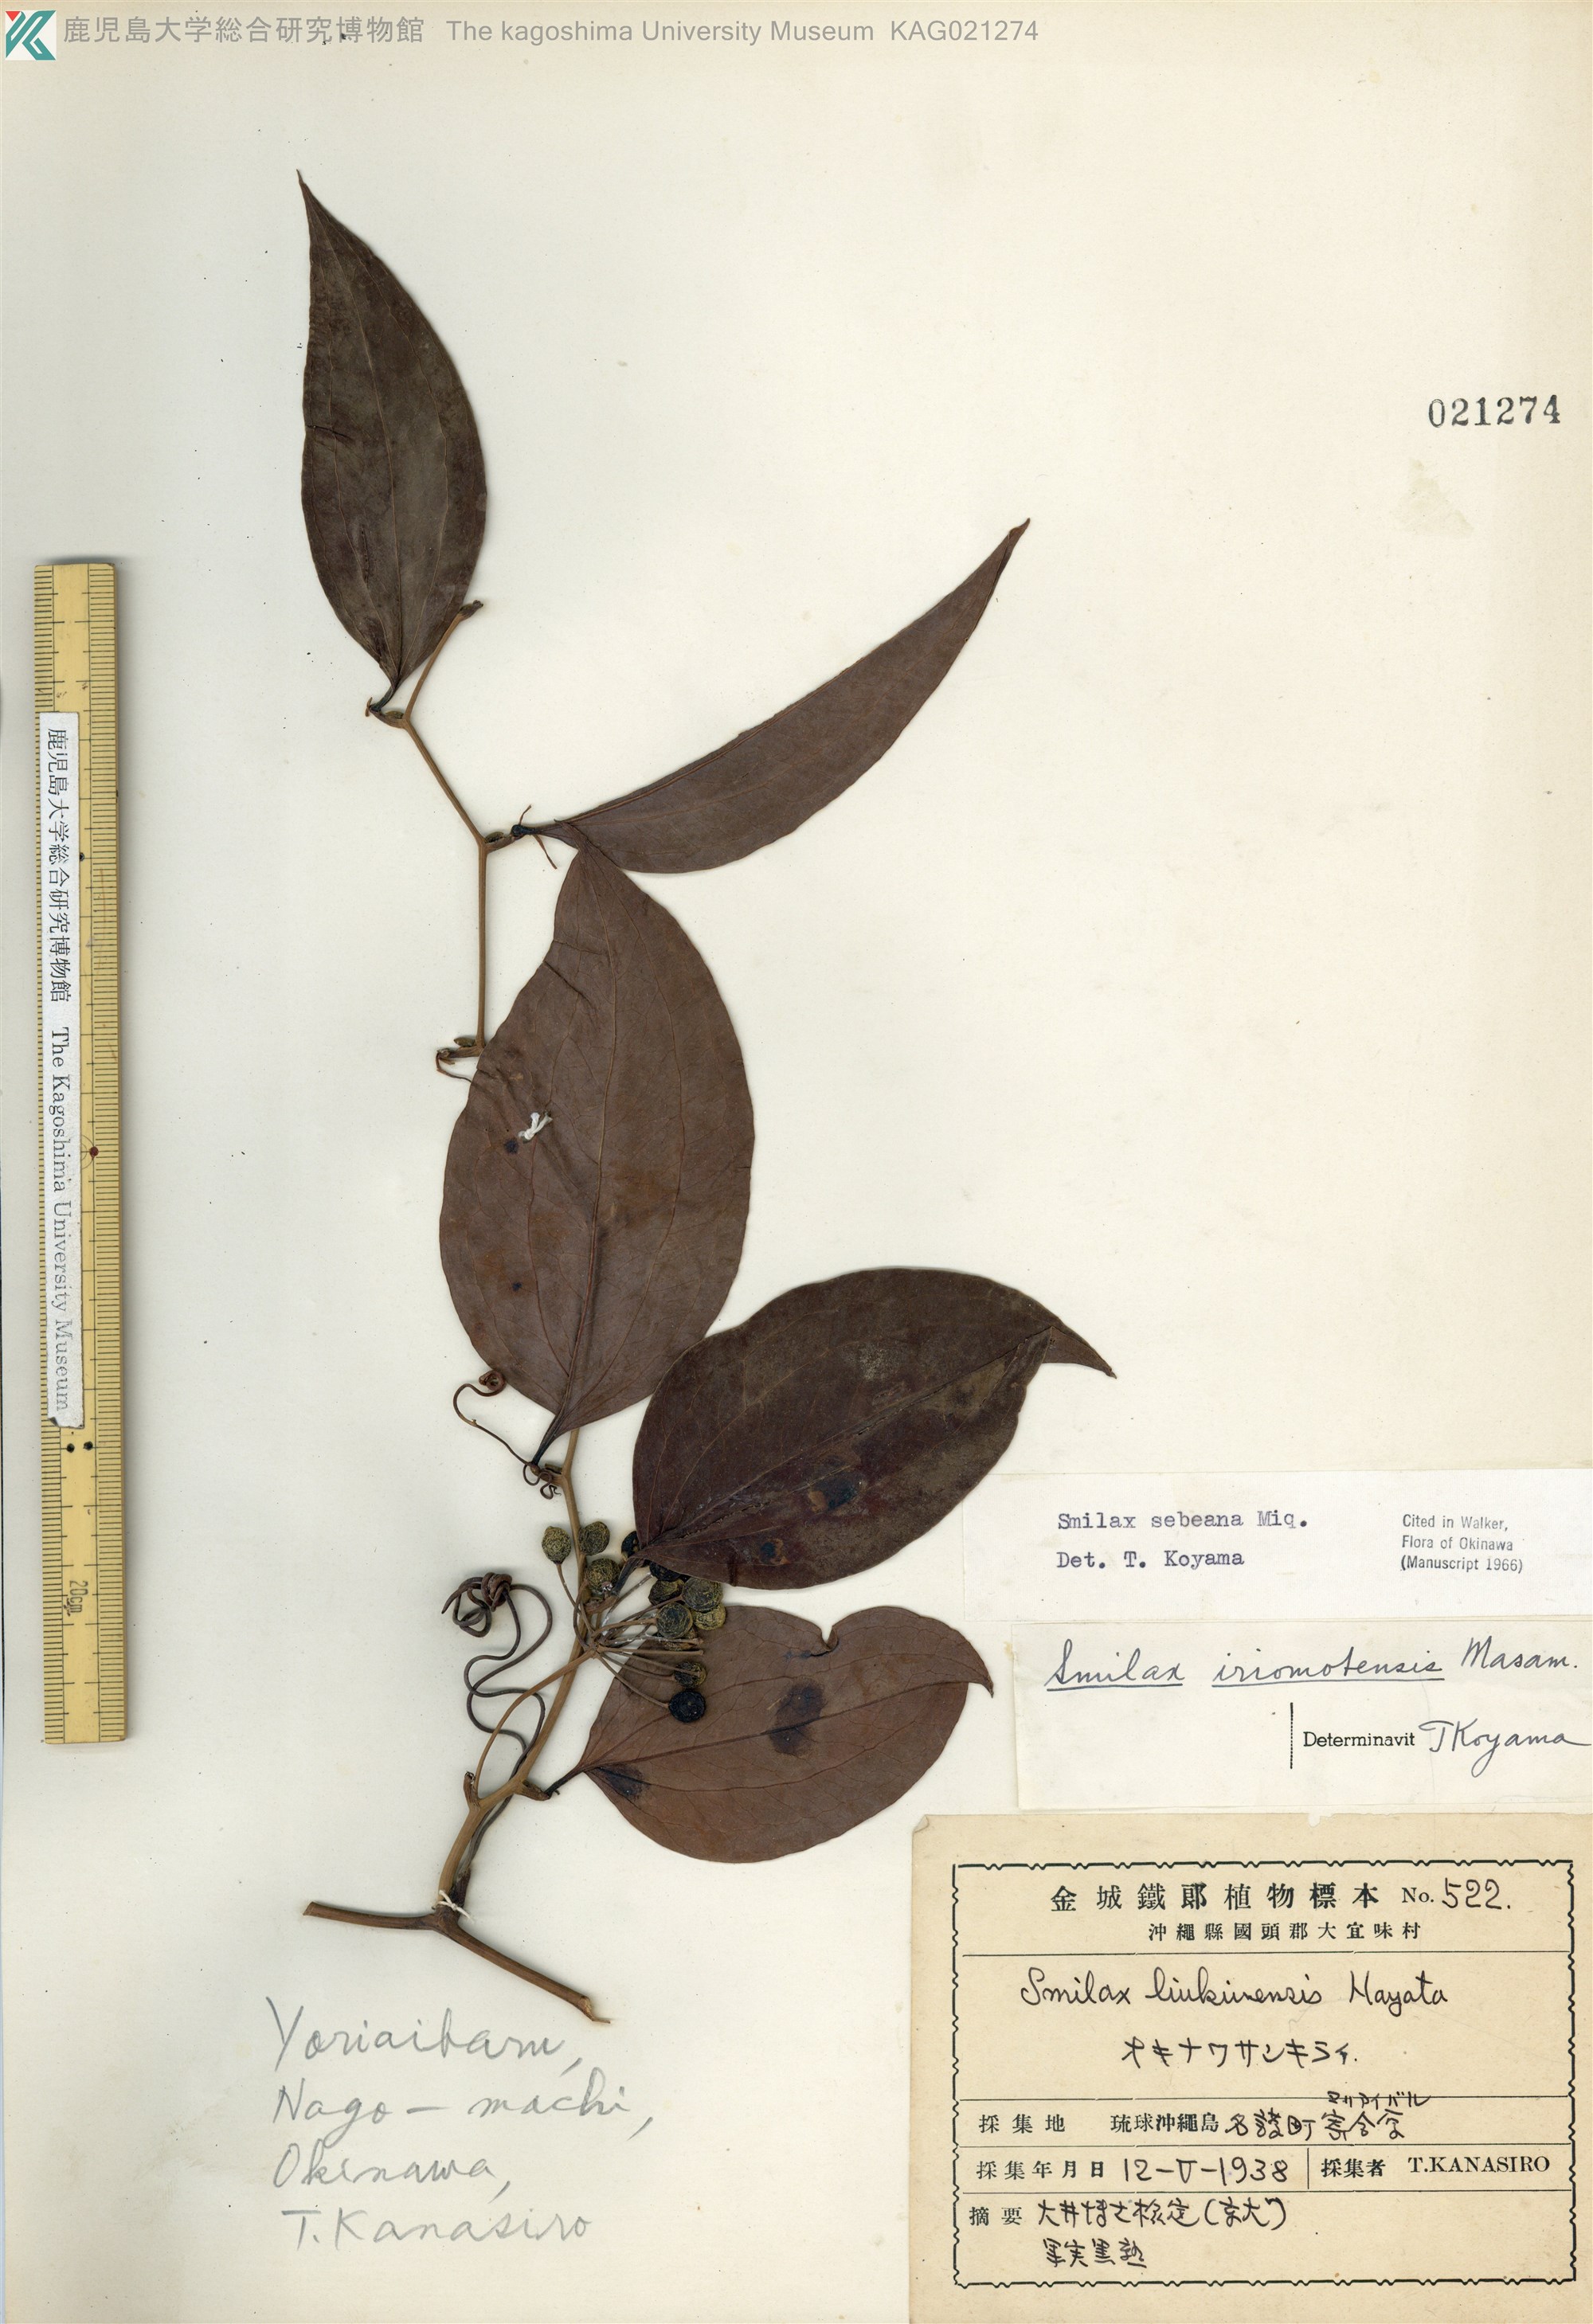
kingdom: Plantae
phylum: Tracheophyta
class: Liliopsida
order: Liliales
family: Smilacaceae
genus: Smilax
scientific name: Smilax sebeana
